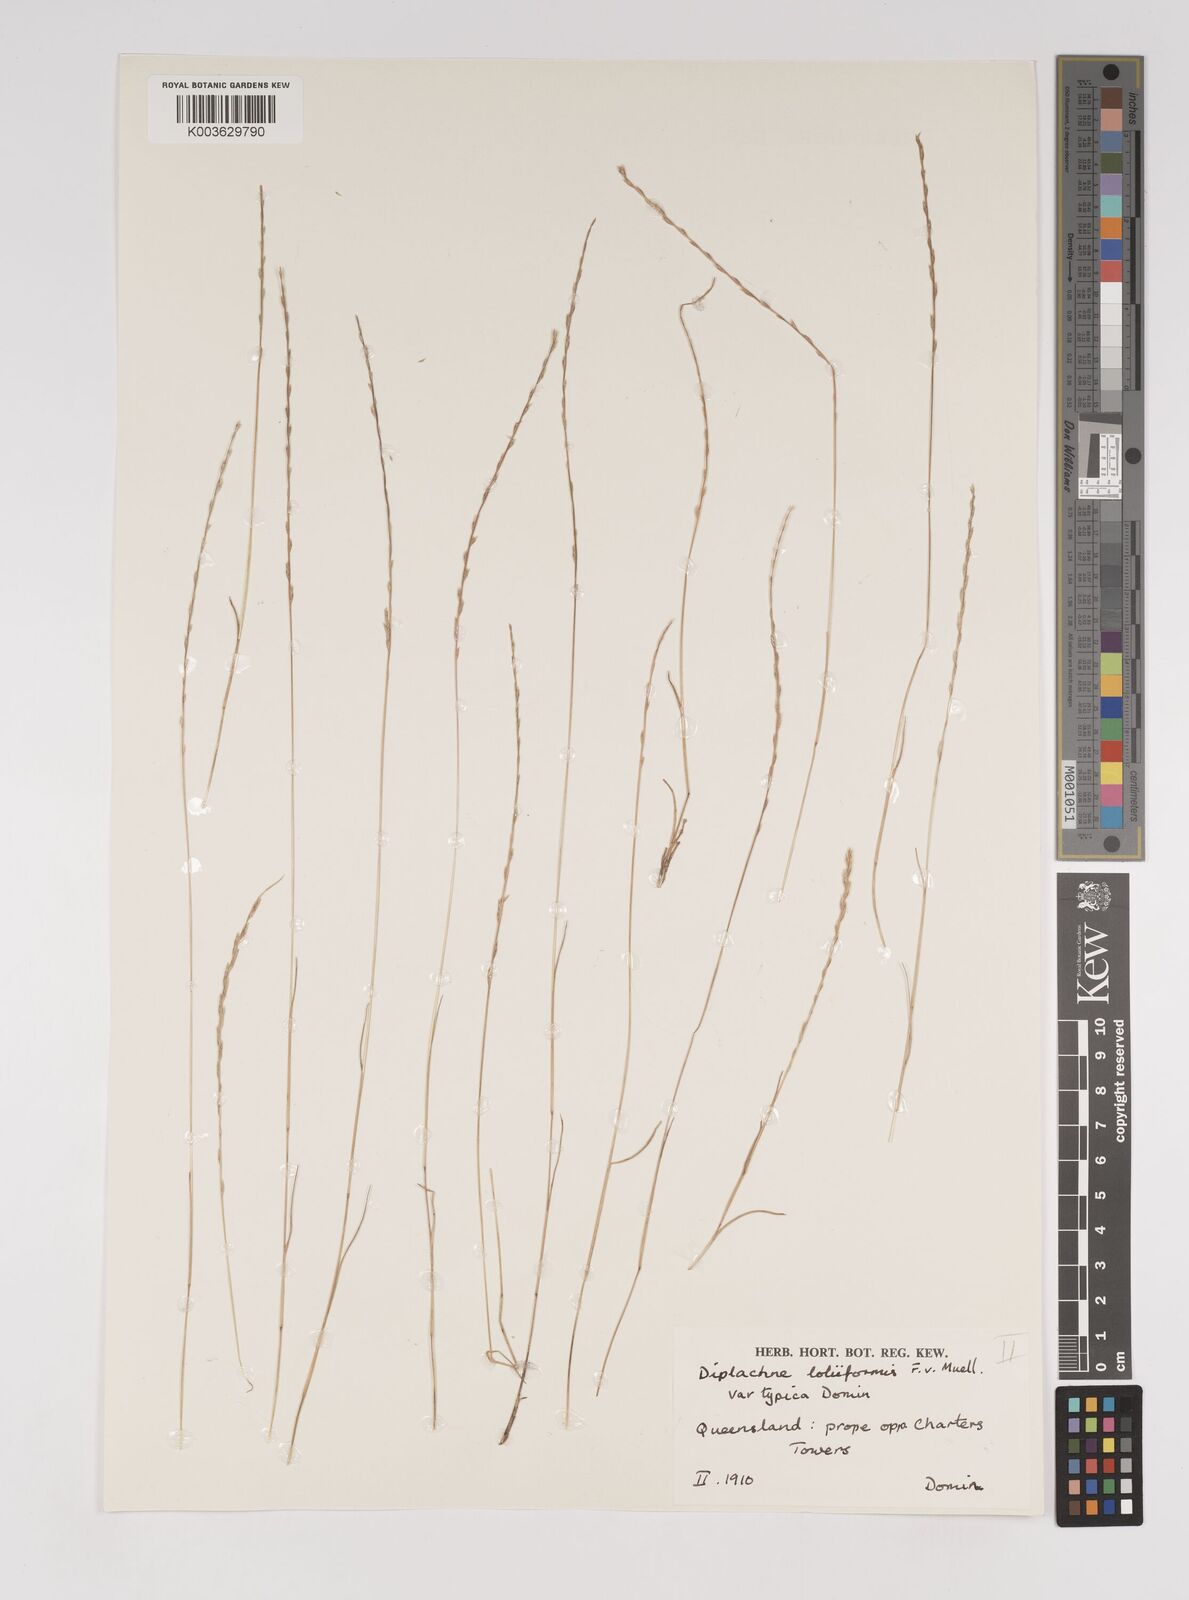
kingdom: Plantae
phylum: Tracheophyta
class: Liliopsida
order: Poales
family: Poaceae
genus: Tripogonella
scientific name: Tripogonella loliiformis
